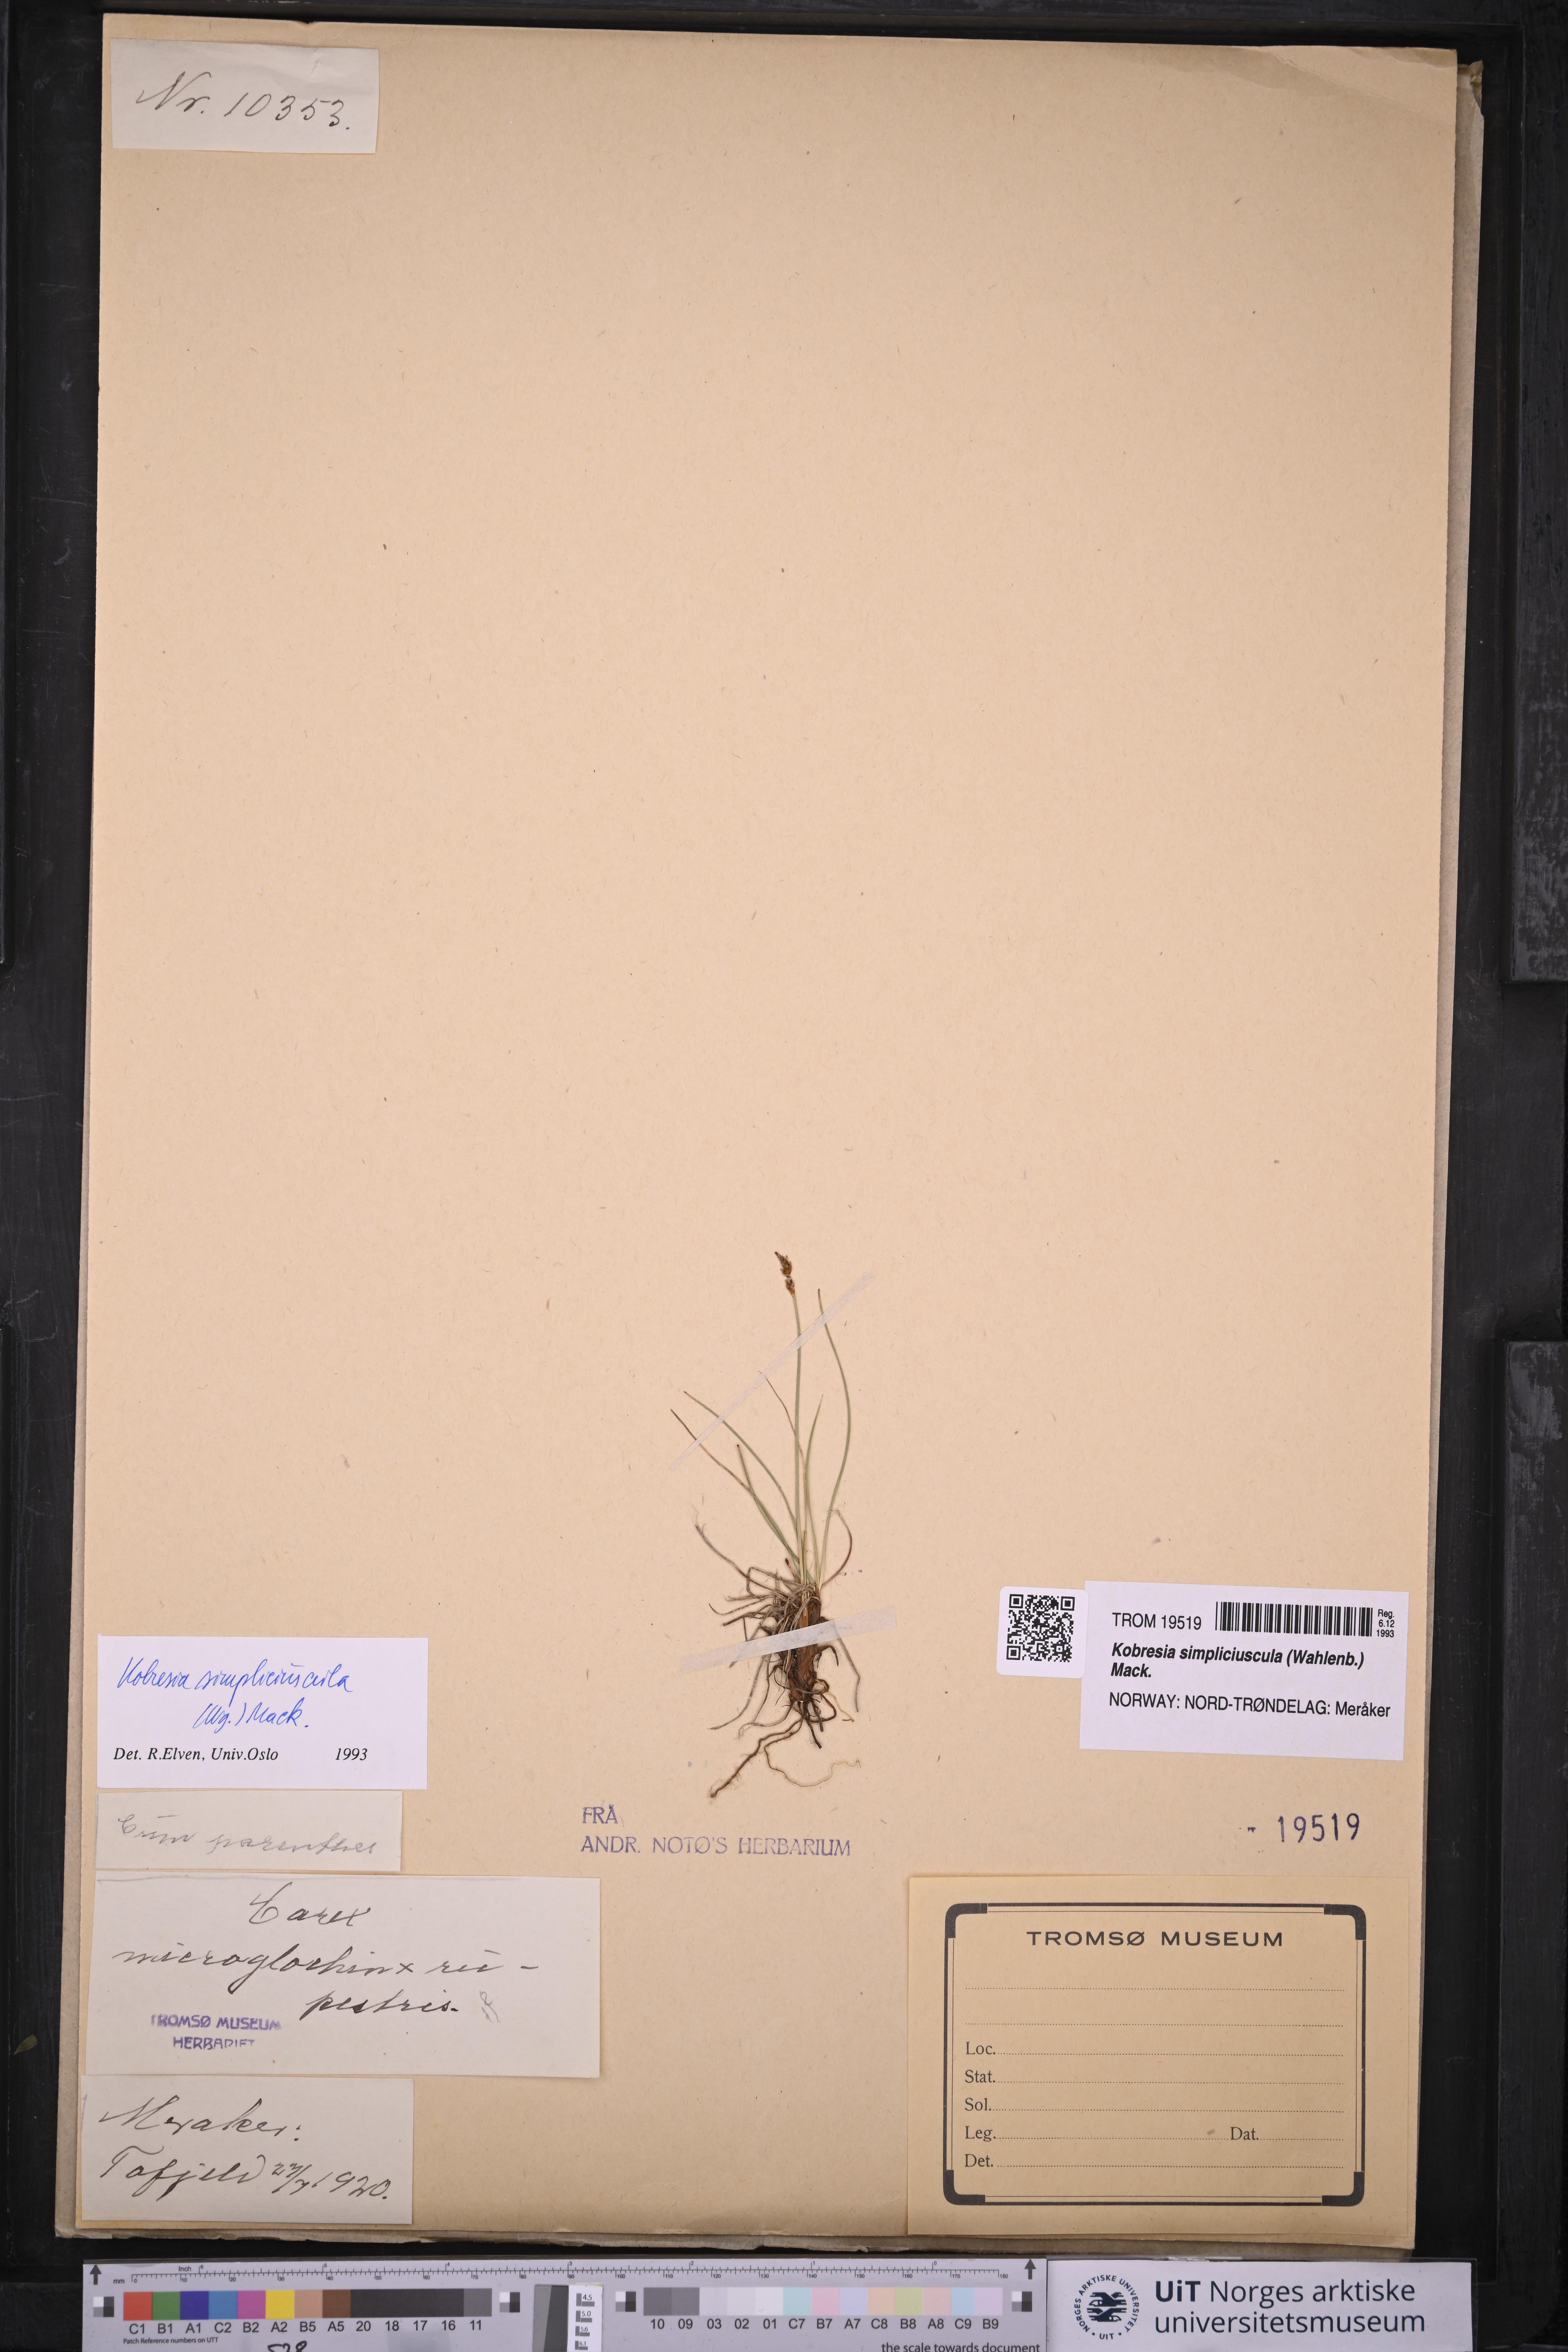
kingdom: Plantae
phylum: Tracheophyta
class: Liliopsida
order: Poales
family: Cyperaceae
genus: Carex
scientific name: Carex simpliciuscula
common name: Simple bog sedge
